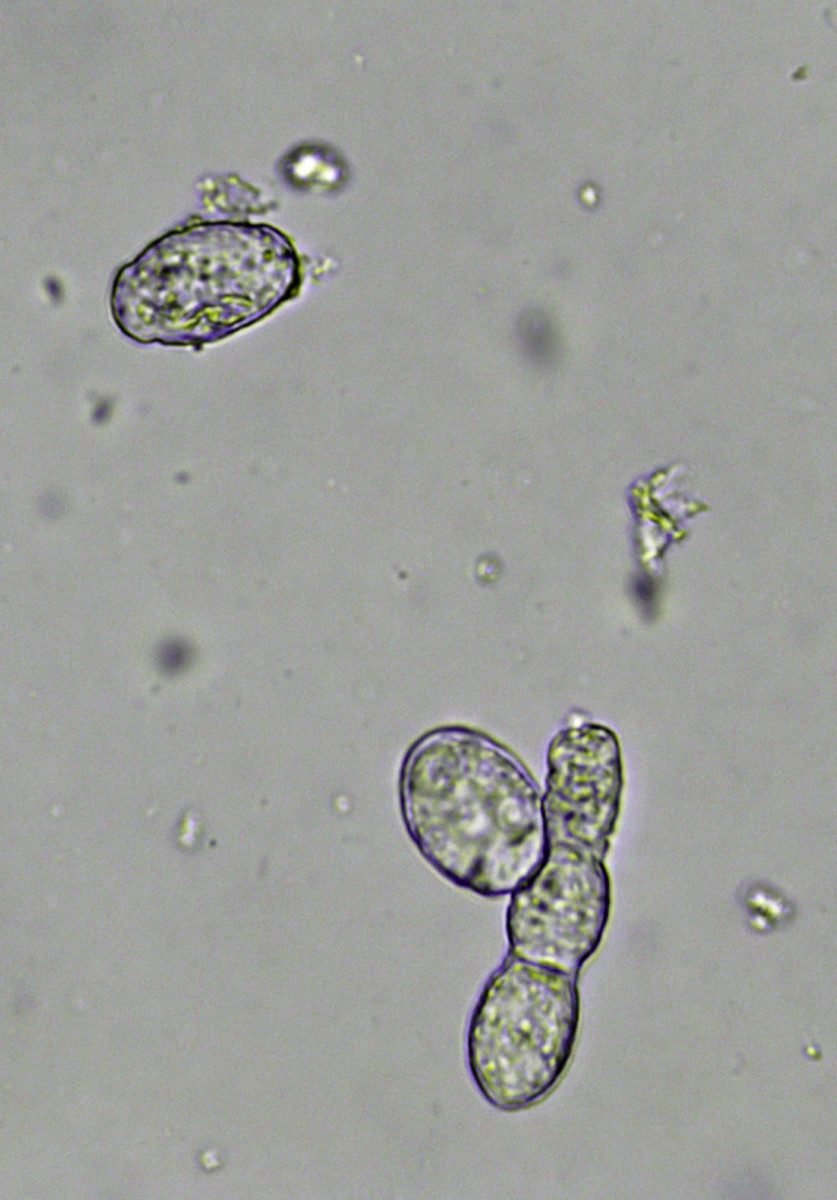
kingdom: Fungi
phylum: Ascomycota
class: Leotiomycetes
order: Helotiales
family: Erysiphaceae
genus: Podosphaera
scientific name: Podosphaera filipendulae
